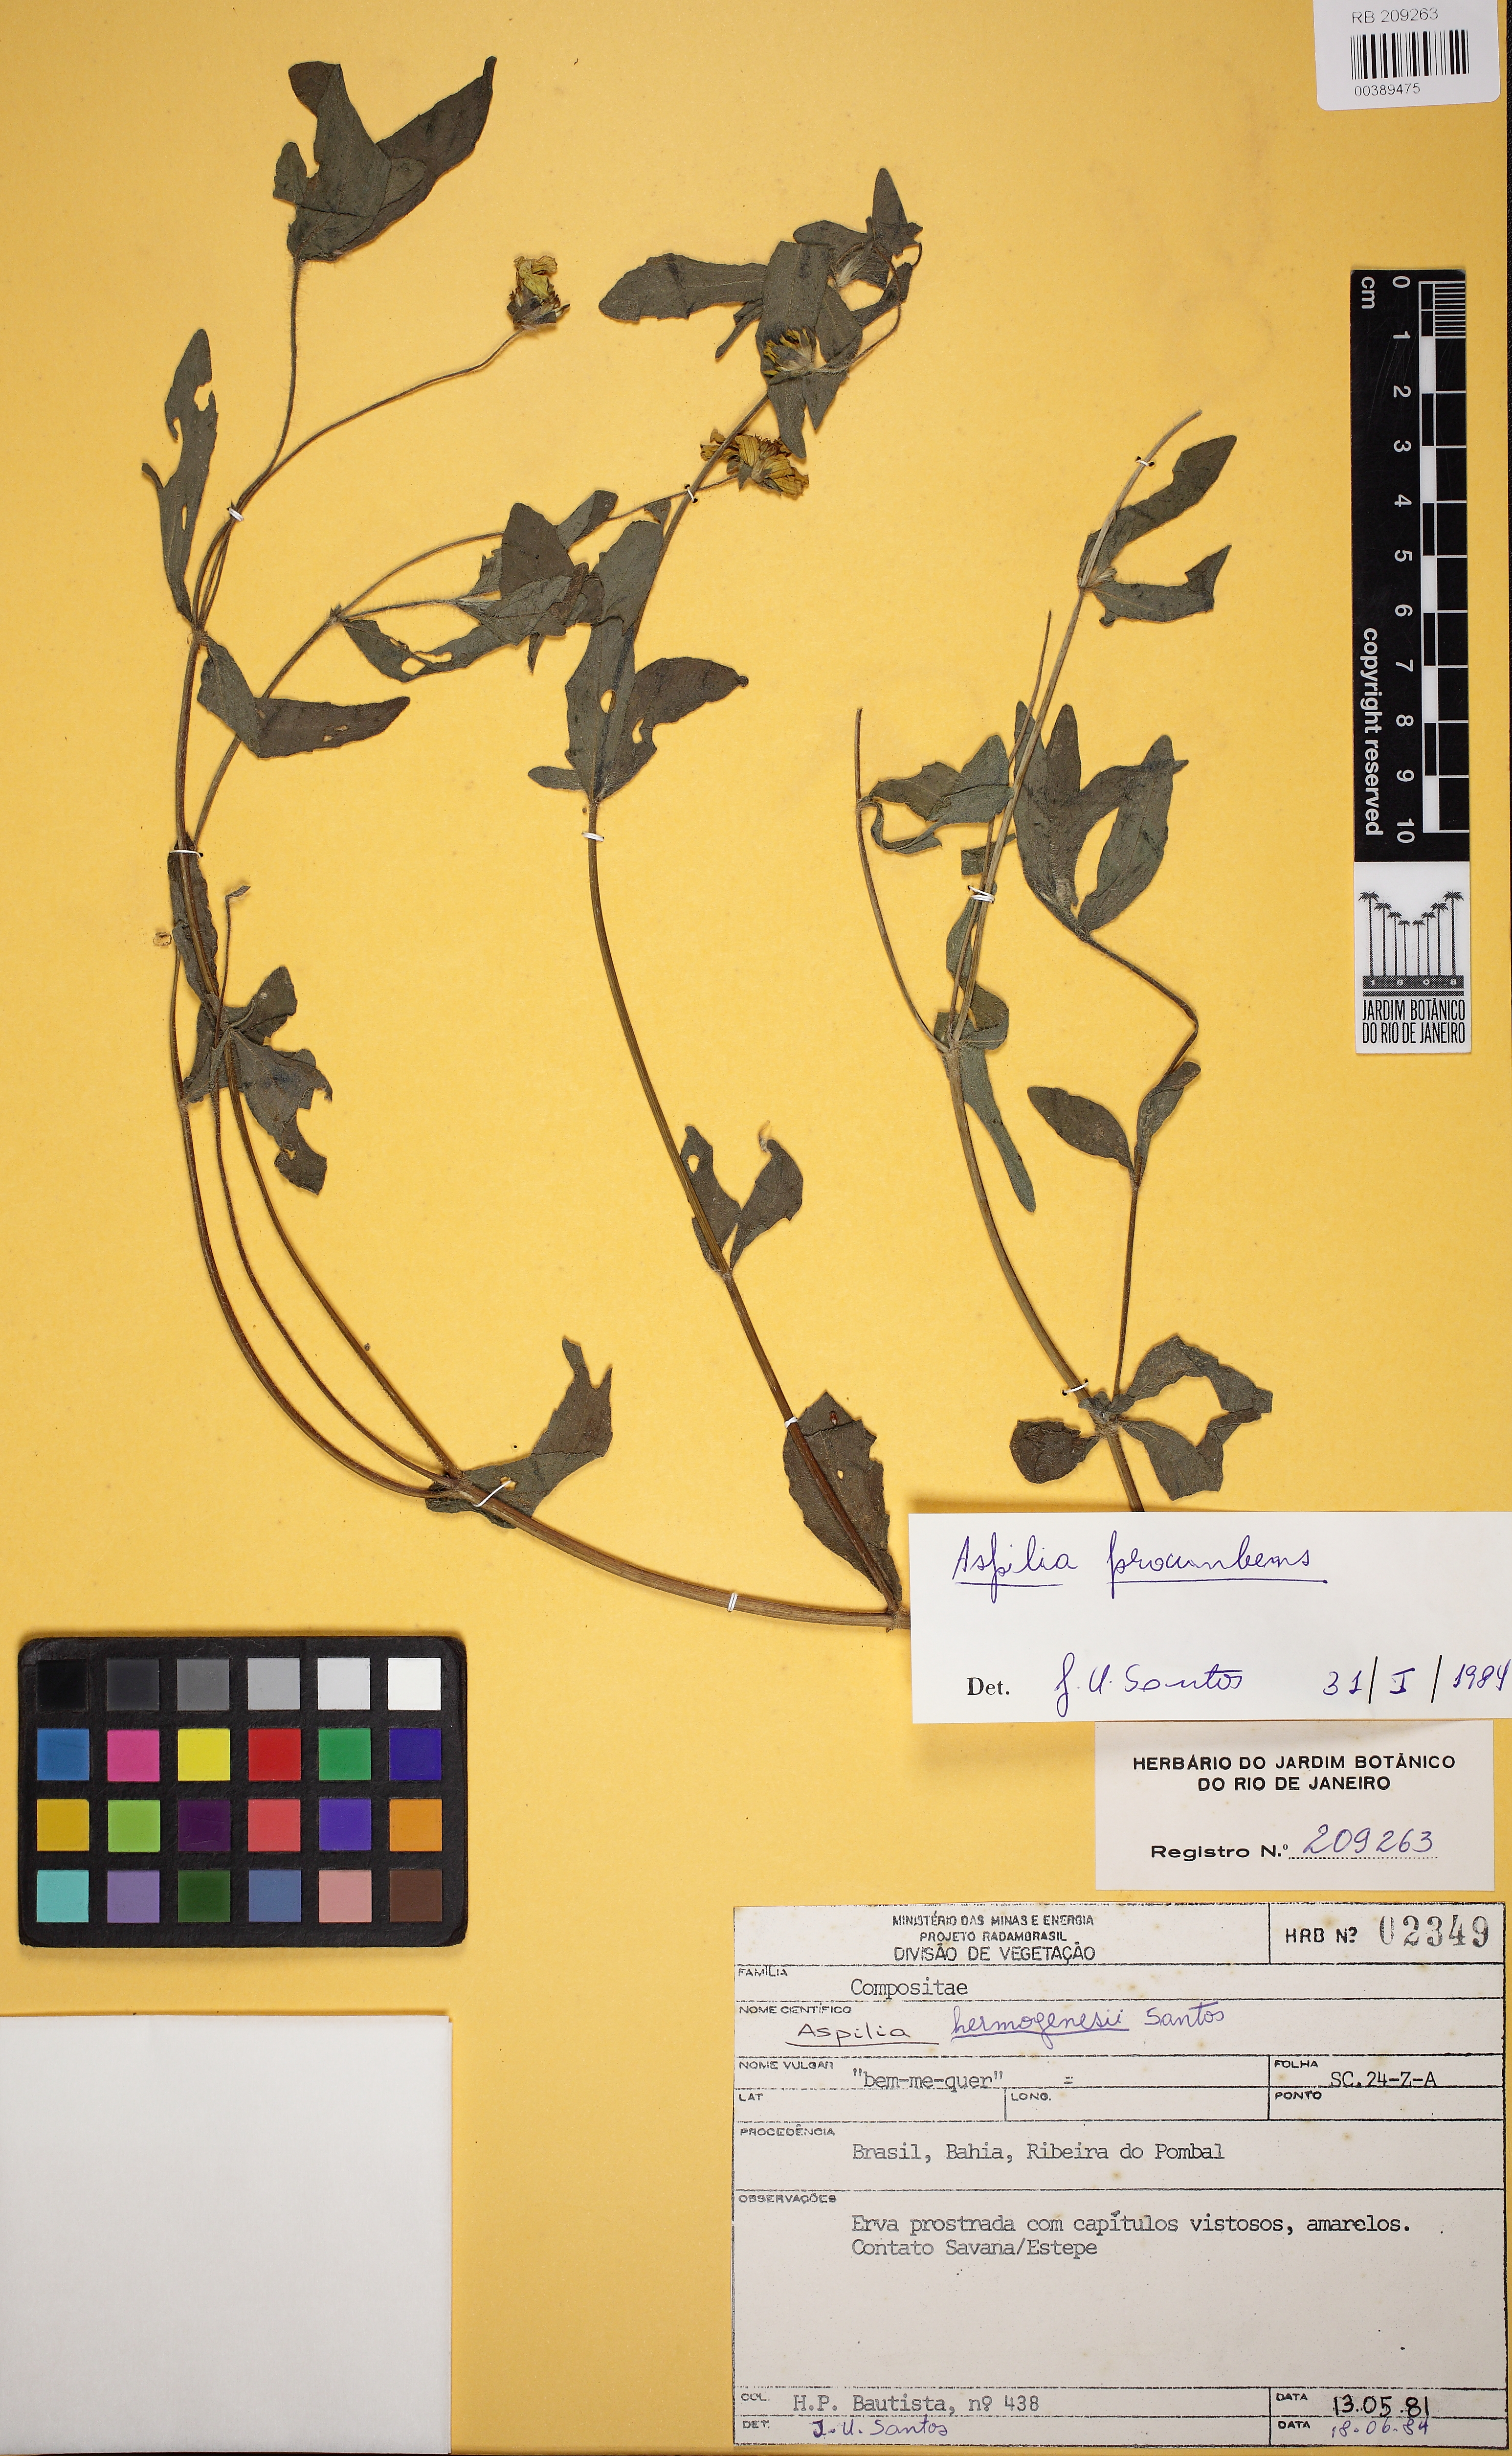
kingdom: Plantae
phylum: Tracheophyta
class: Magnoliopsida
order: Asterales
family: Asteraceae
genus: Wedelia
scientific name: Wedelia bonplandiana
